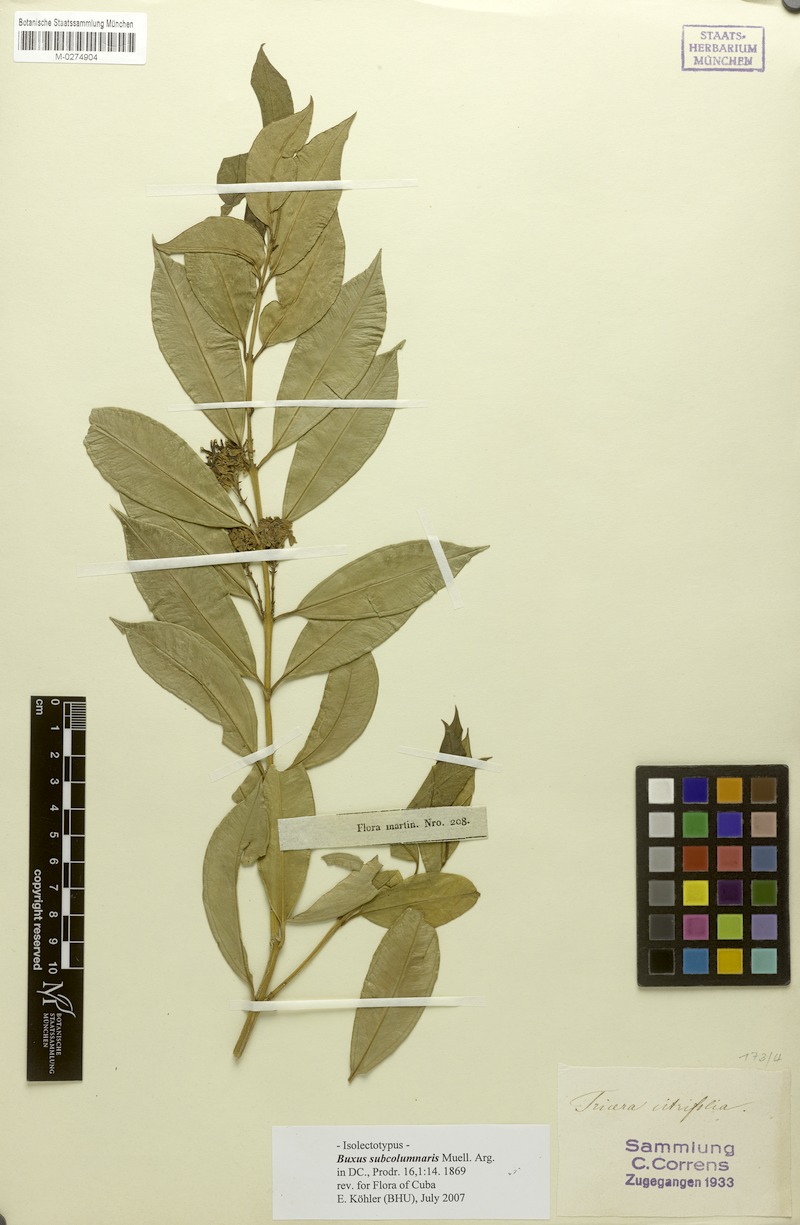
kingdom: Plantae
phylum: Tracheophyta
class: Magnoliopsida
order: Buxales
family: Buxaceae
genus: Buxus
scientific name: Buxus subcolumnaris
